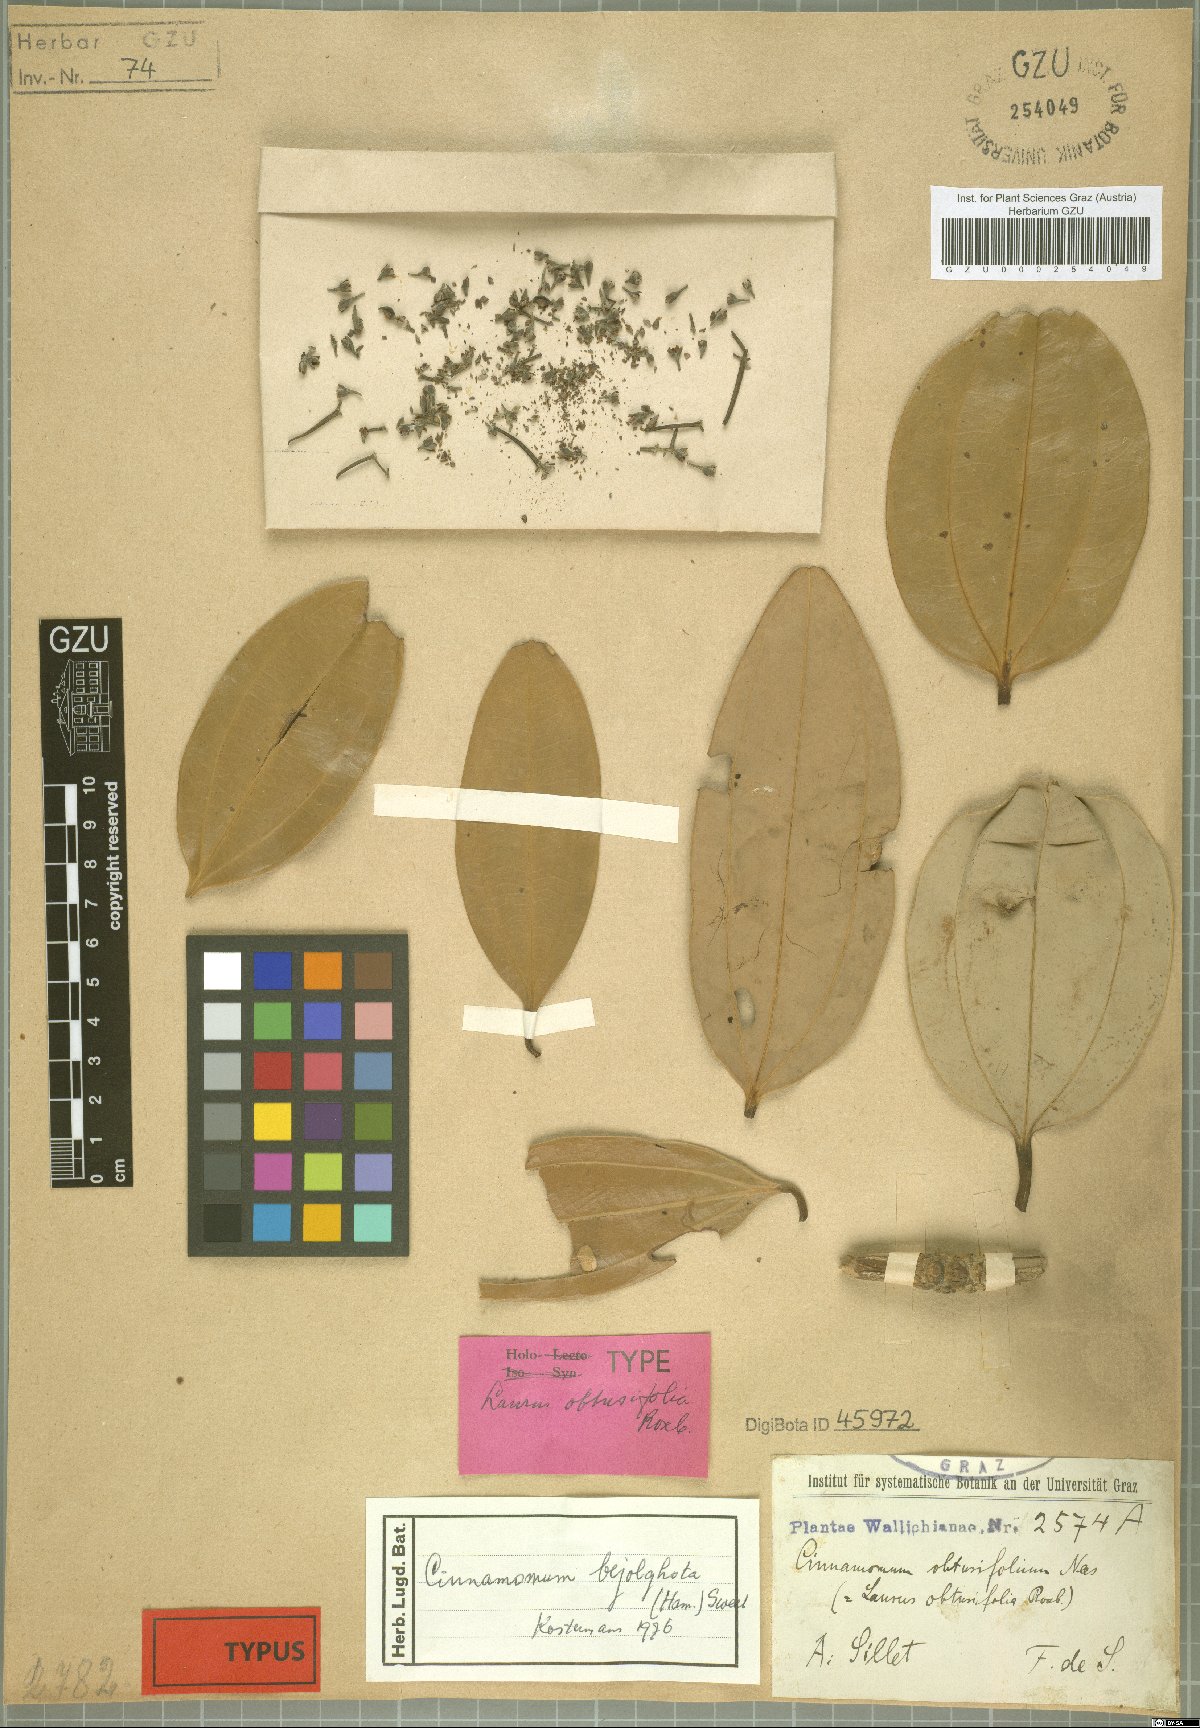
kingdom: Plantae
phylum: Tracheophyta
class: Magnoliopsida
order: Laurales
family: Lauraceae
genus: Cinnamomum
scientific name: Cinnamomum bejolghota
